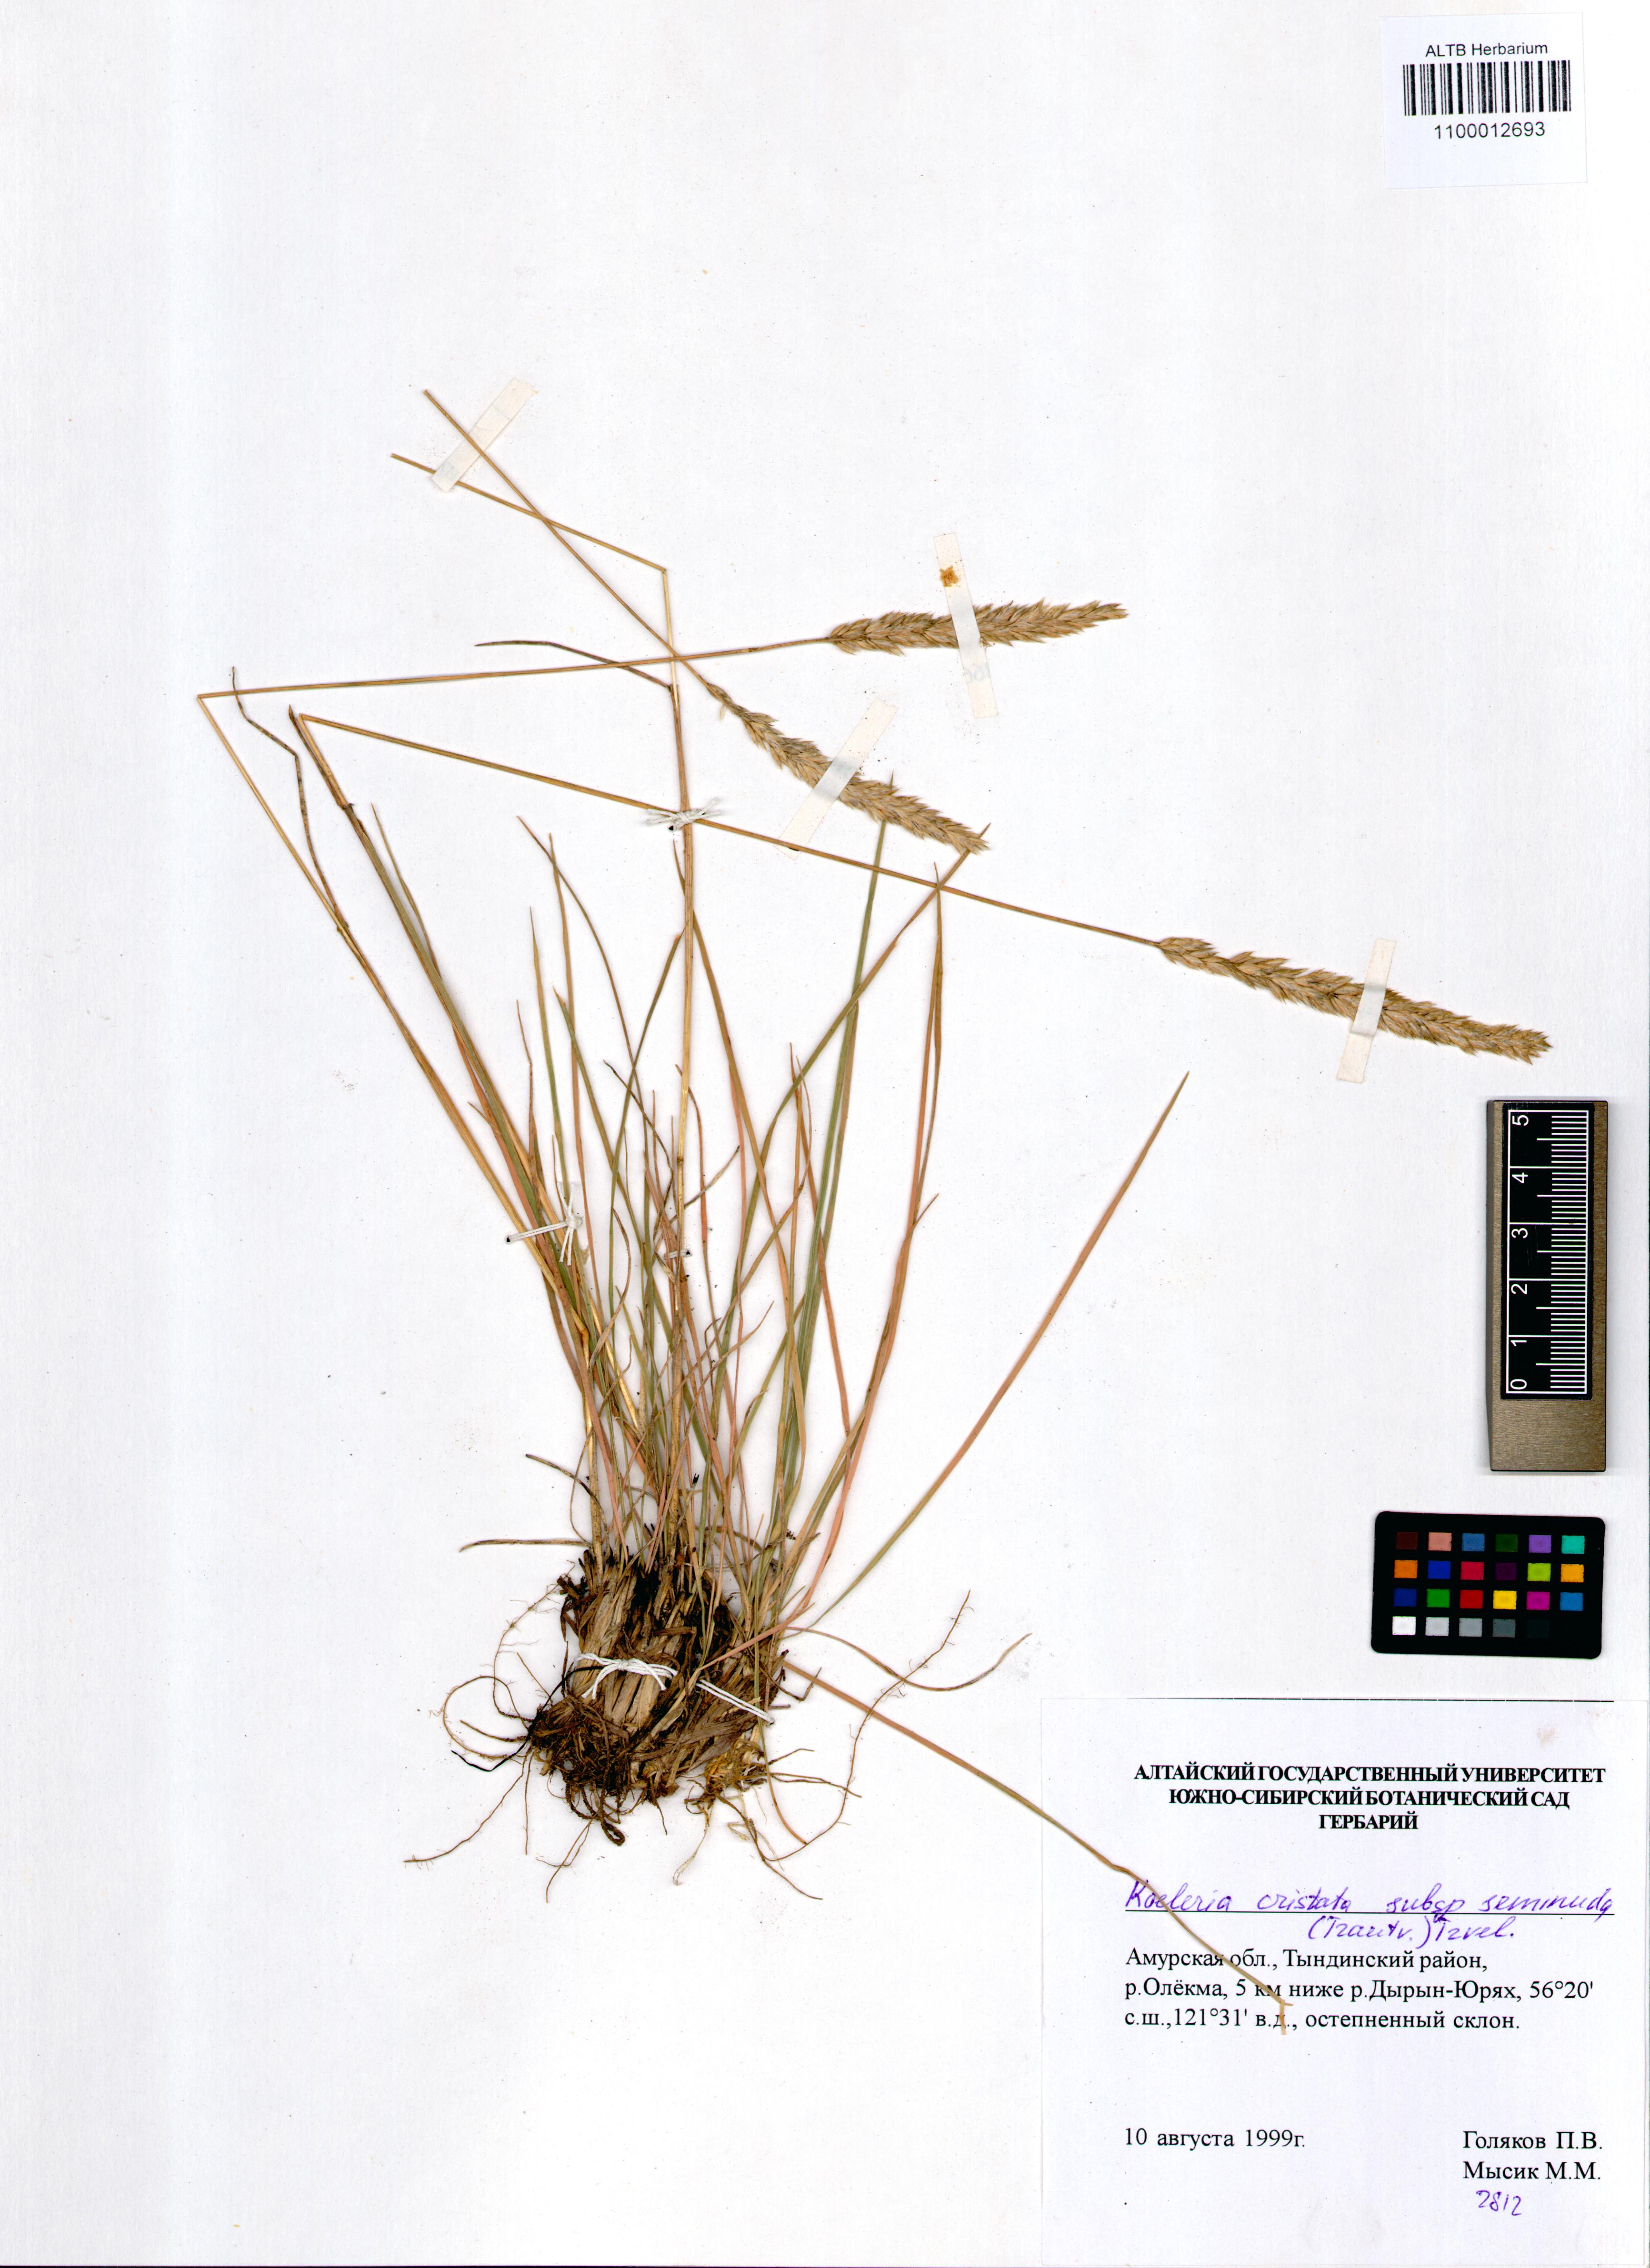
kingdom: Plantae
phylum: Tracheophyta
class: Liliopsida
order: Poales
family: Poaceae
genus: Koeleria
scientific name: Koeleria pyramidata
